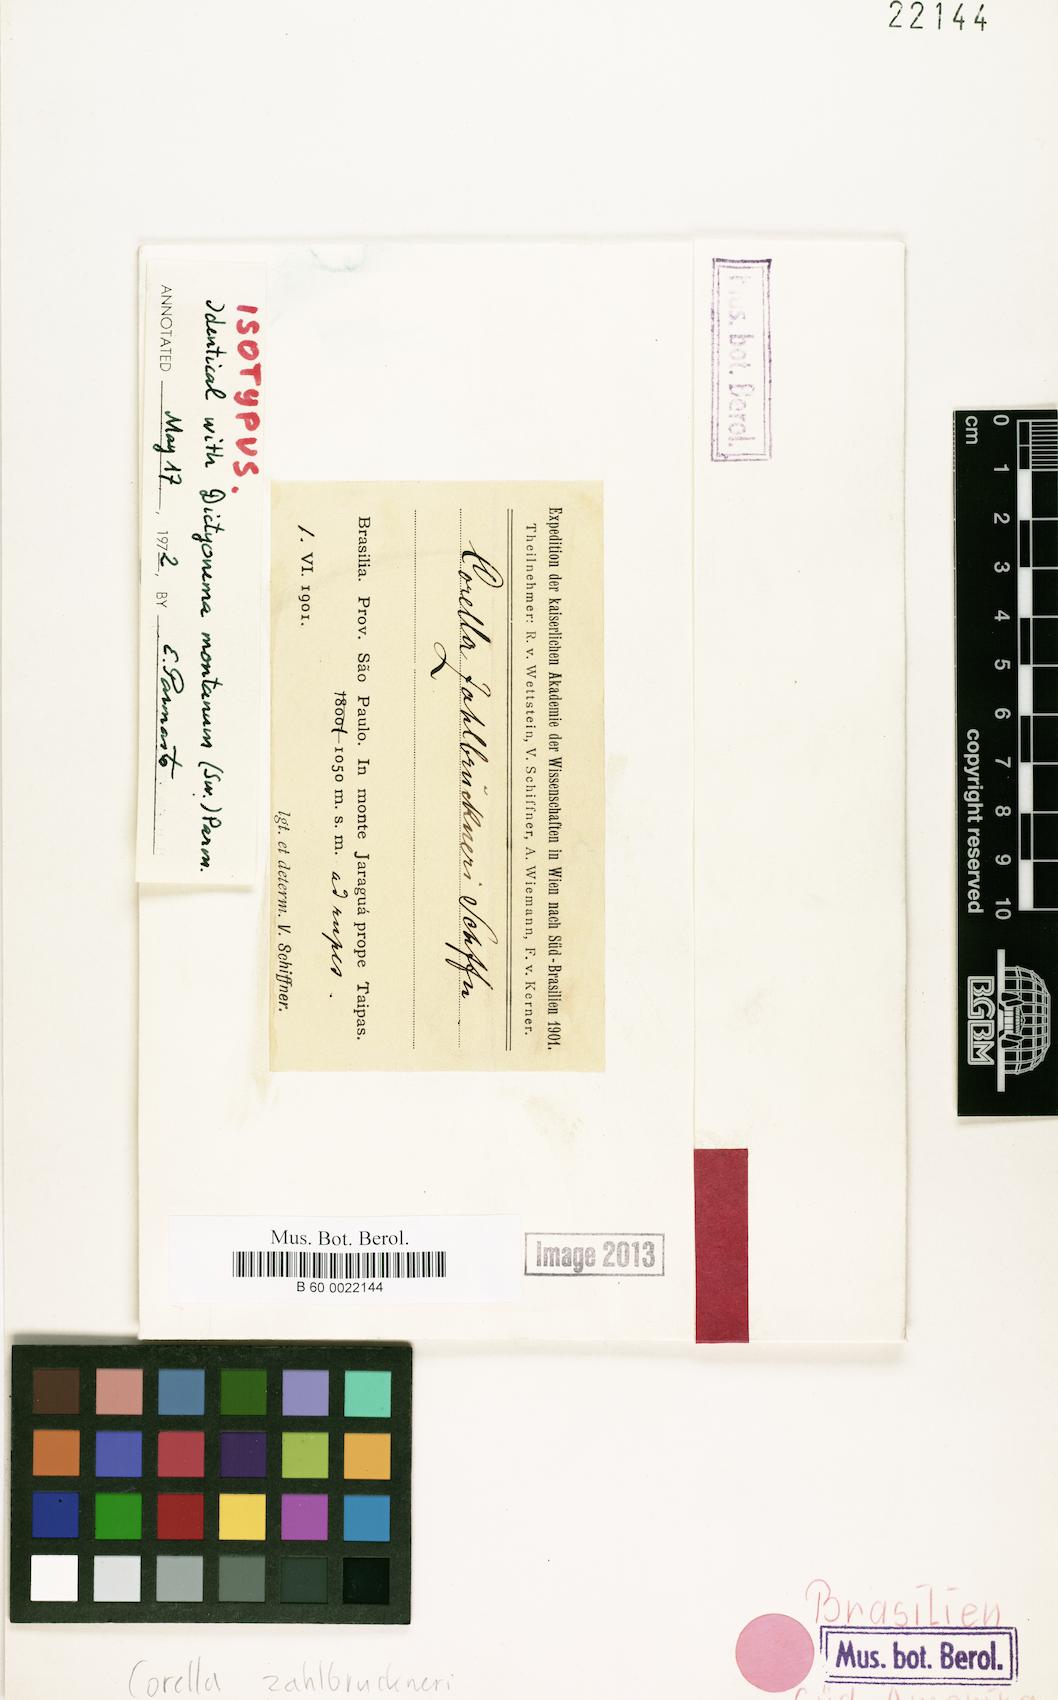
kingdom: Fungi
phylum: Basidiomycota
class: Agaricomycetes
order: Agaricales
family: Hygrophoraceae
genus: Cora
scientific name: Cora glabrata
